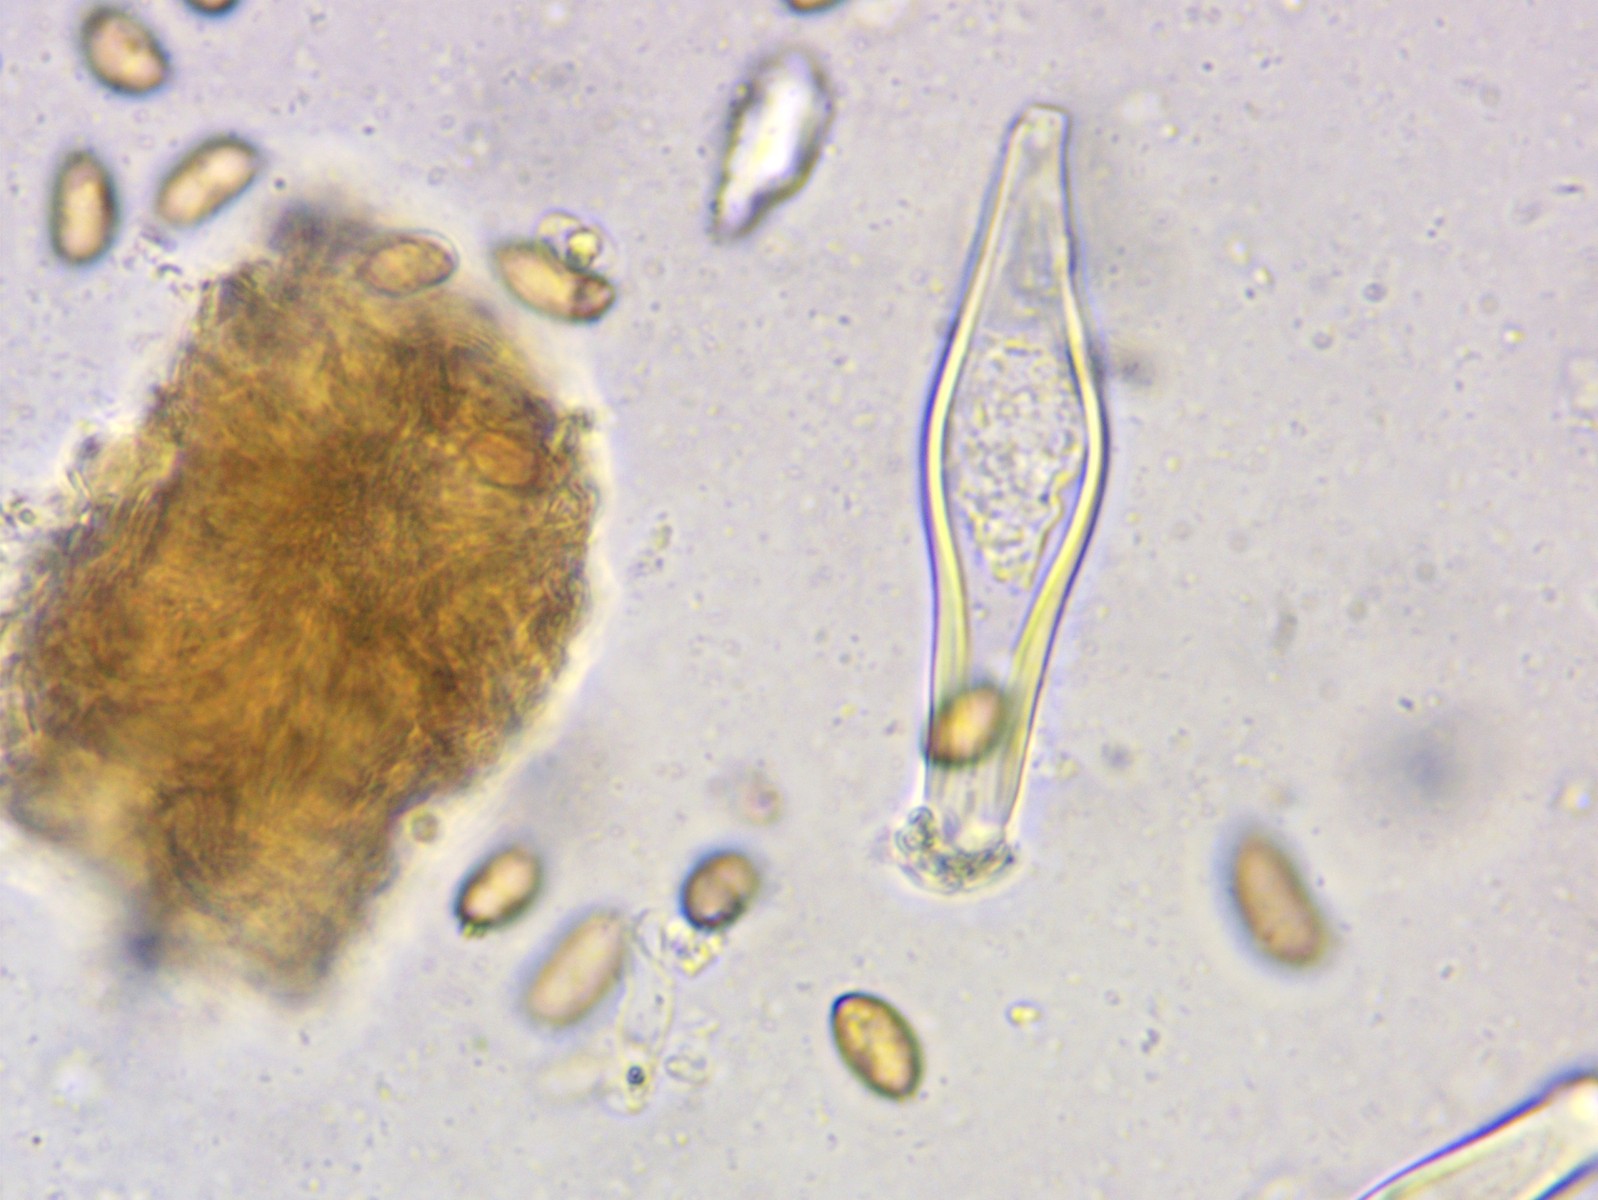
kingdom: Fungi
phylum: Basidiomycota
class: Agaricomycetes
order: Agaricales
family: Inocybaceae
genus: Inocybe
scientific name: Inocybe flocculosa
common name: fnugget trævlhat
